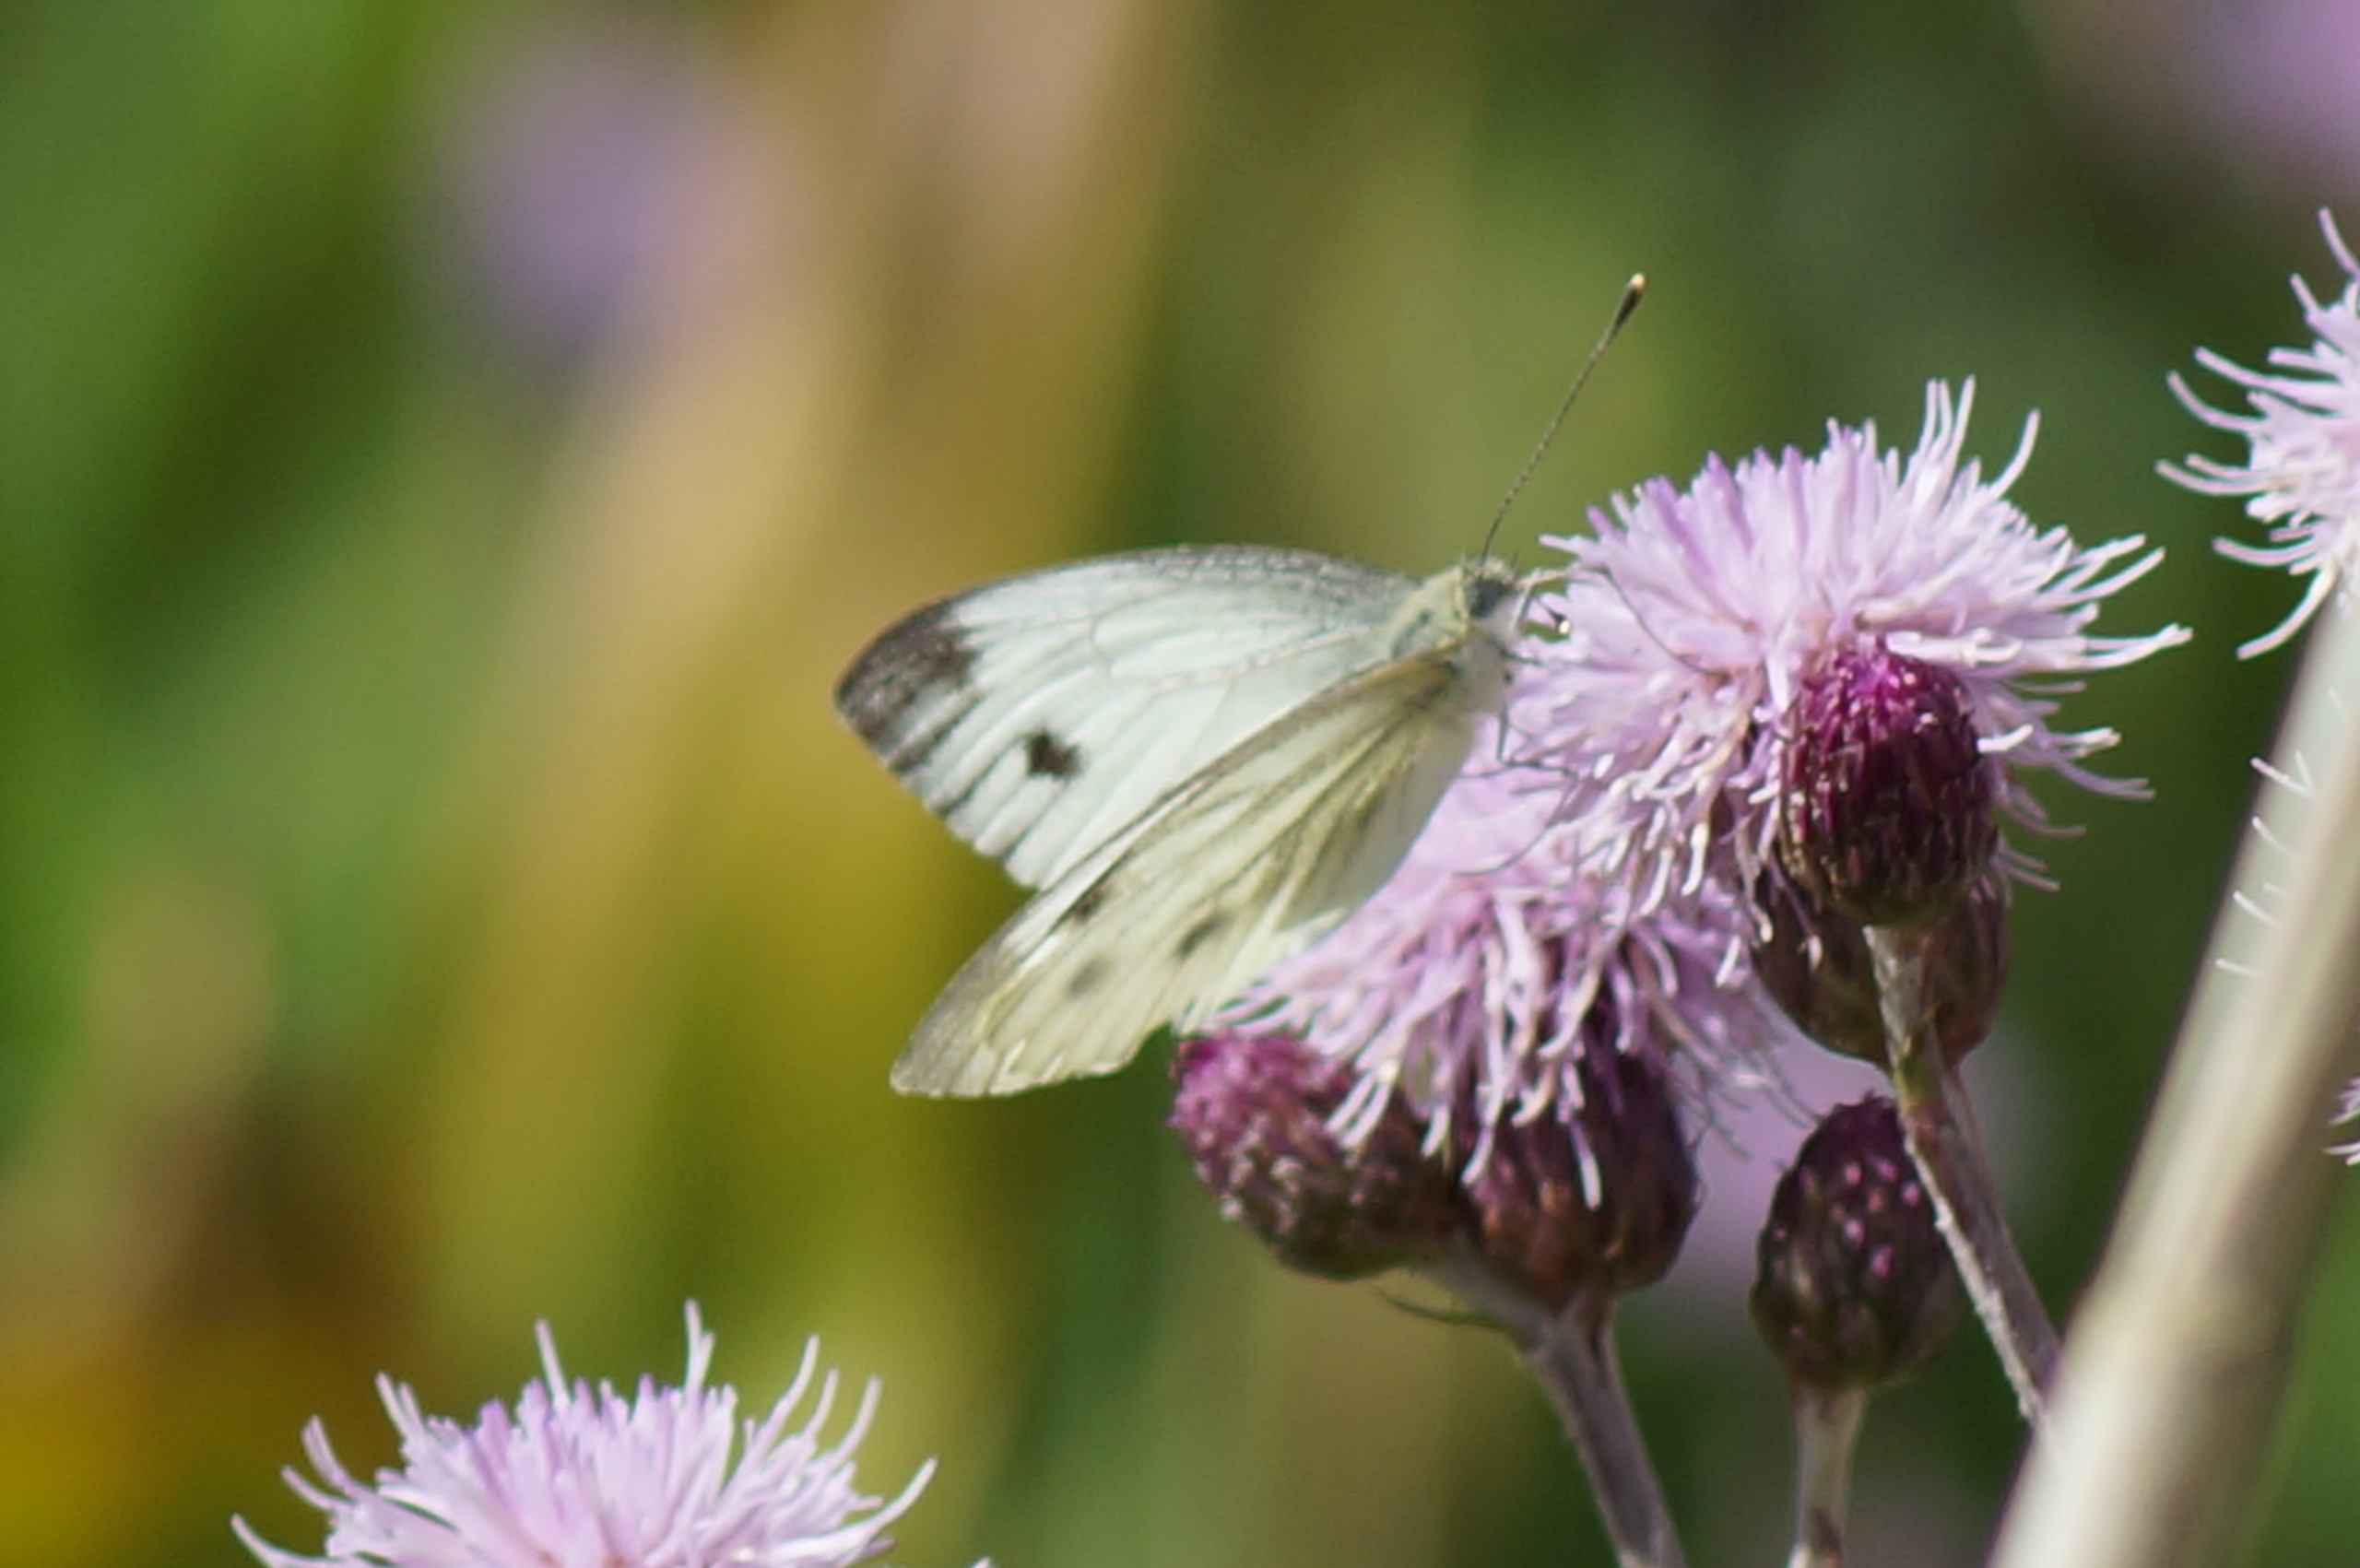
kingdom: Animalia
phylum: Arthropoda
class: Insecta
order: Lepidoptera
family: Pieridae
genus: Pieris
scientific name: Pieris napi
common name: Grønåret kålsommerfugl
